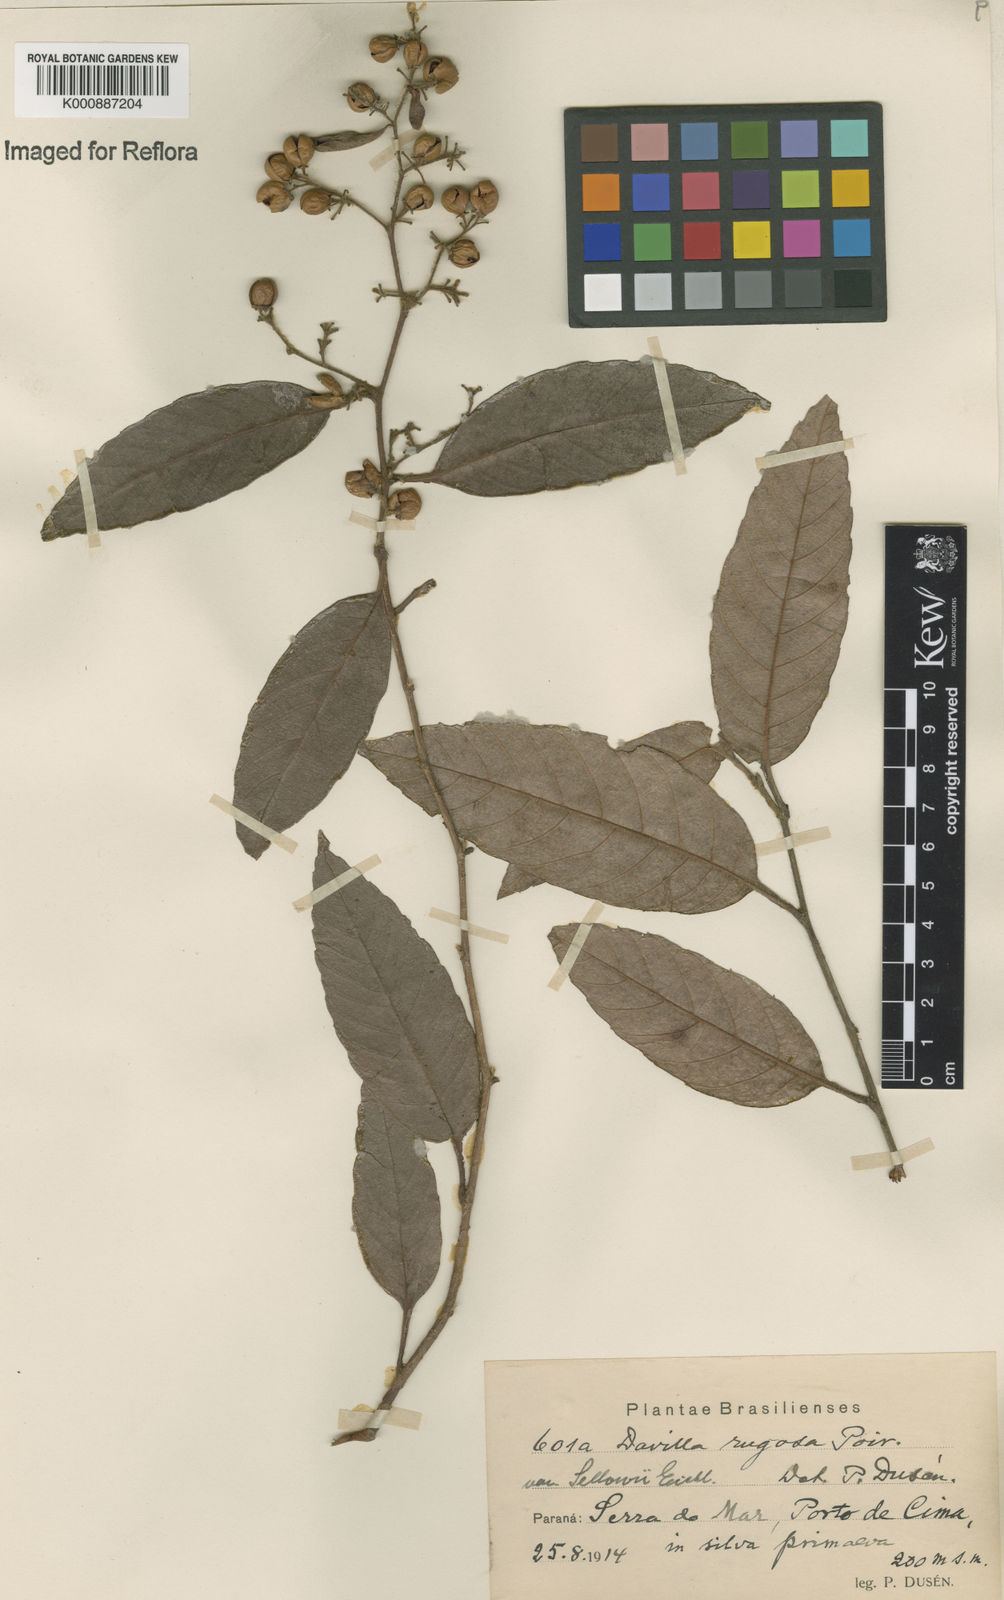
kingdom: Plantae
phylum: Tracheophyta
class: Magnoliopsida
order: Dilleniales
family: Dilleniaceae
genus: Davilla
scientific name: Davilla rugosa
